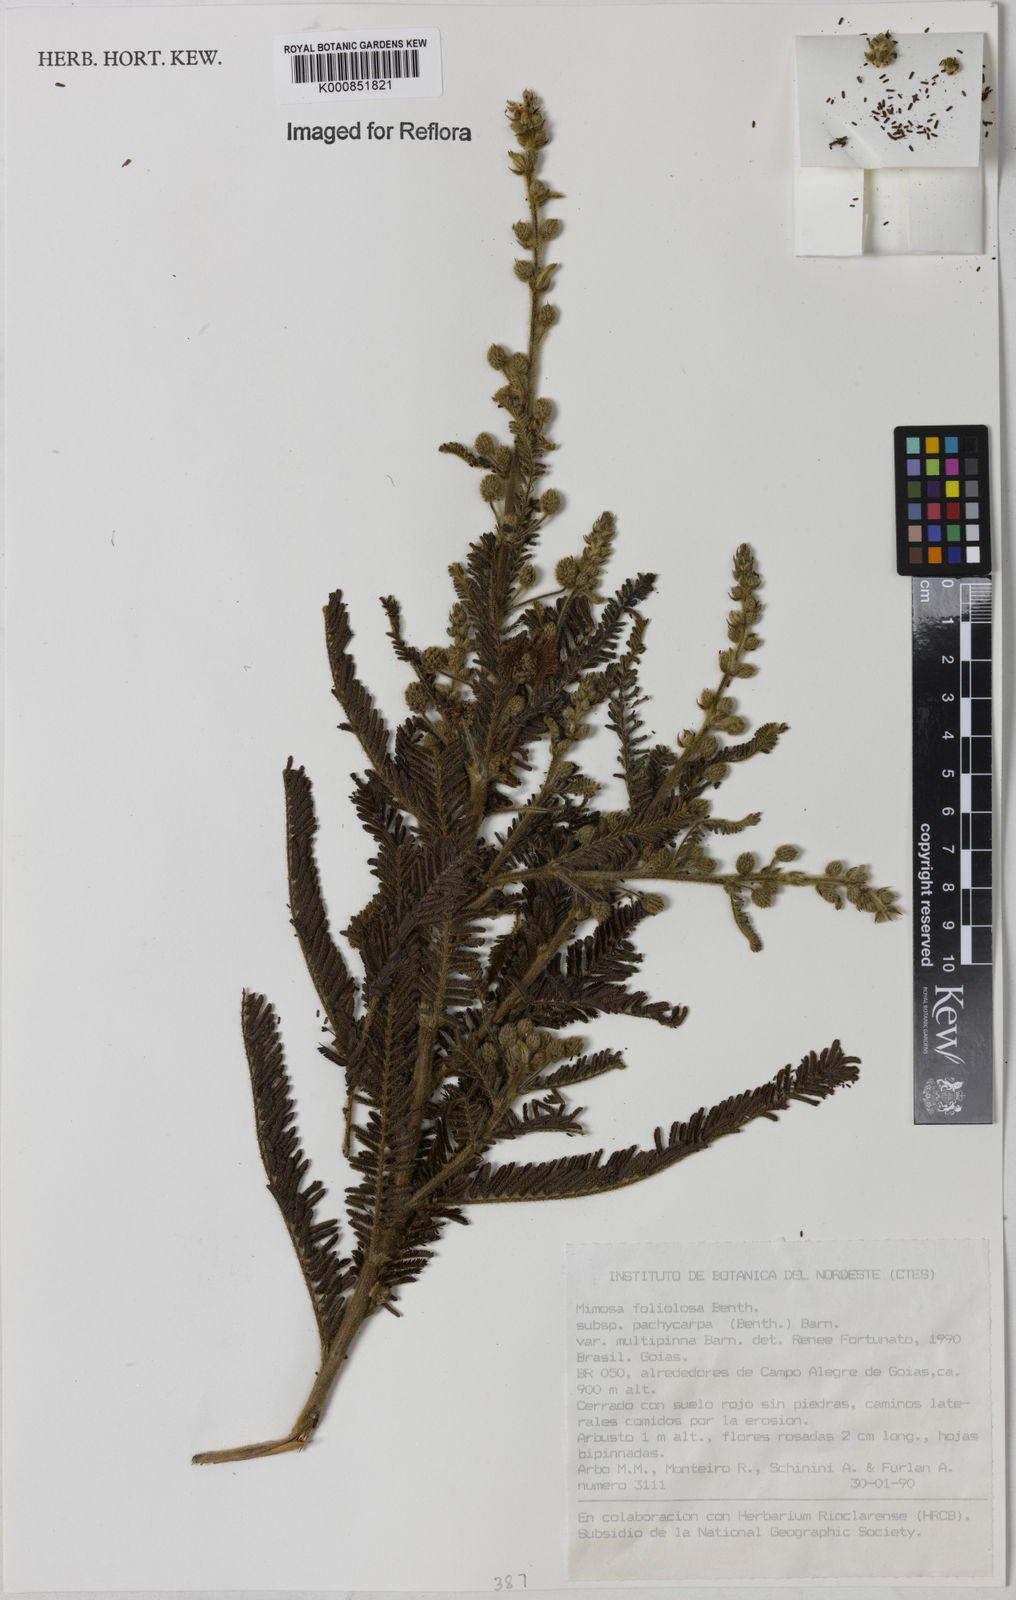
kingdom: Plantae
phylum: Tracheophyta
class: Magnoliopsida
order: Fabales
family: Fabaceae
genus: Mimosa
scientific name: Mimosa foliolosa
